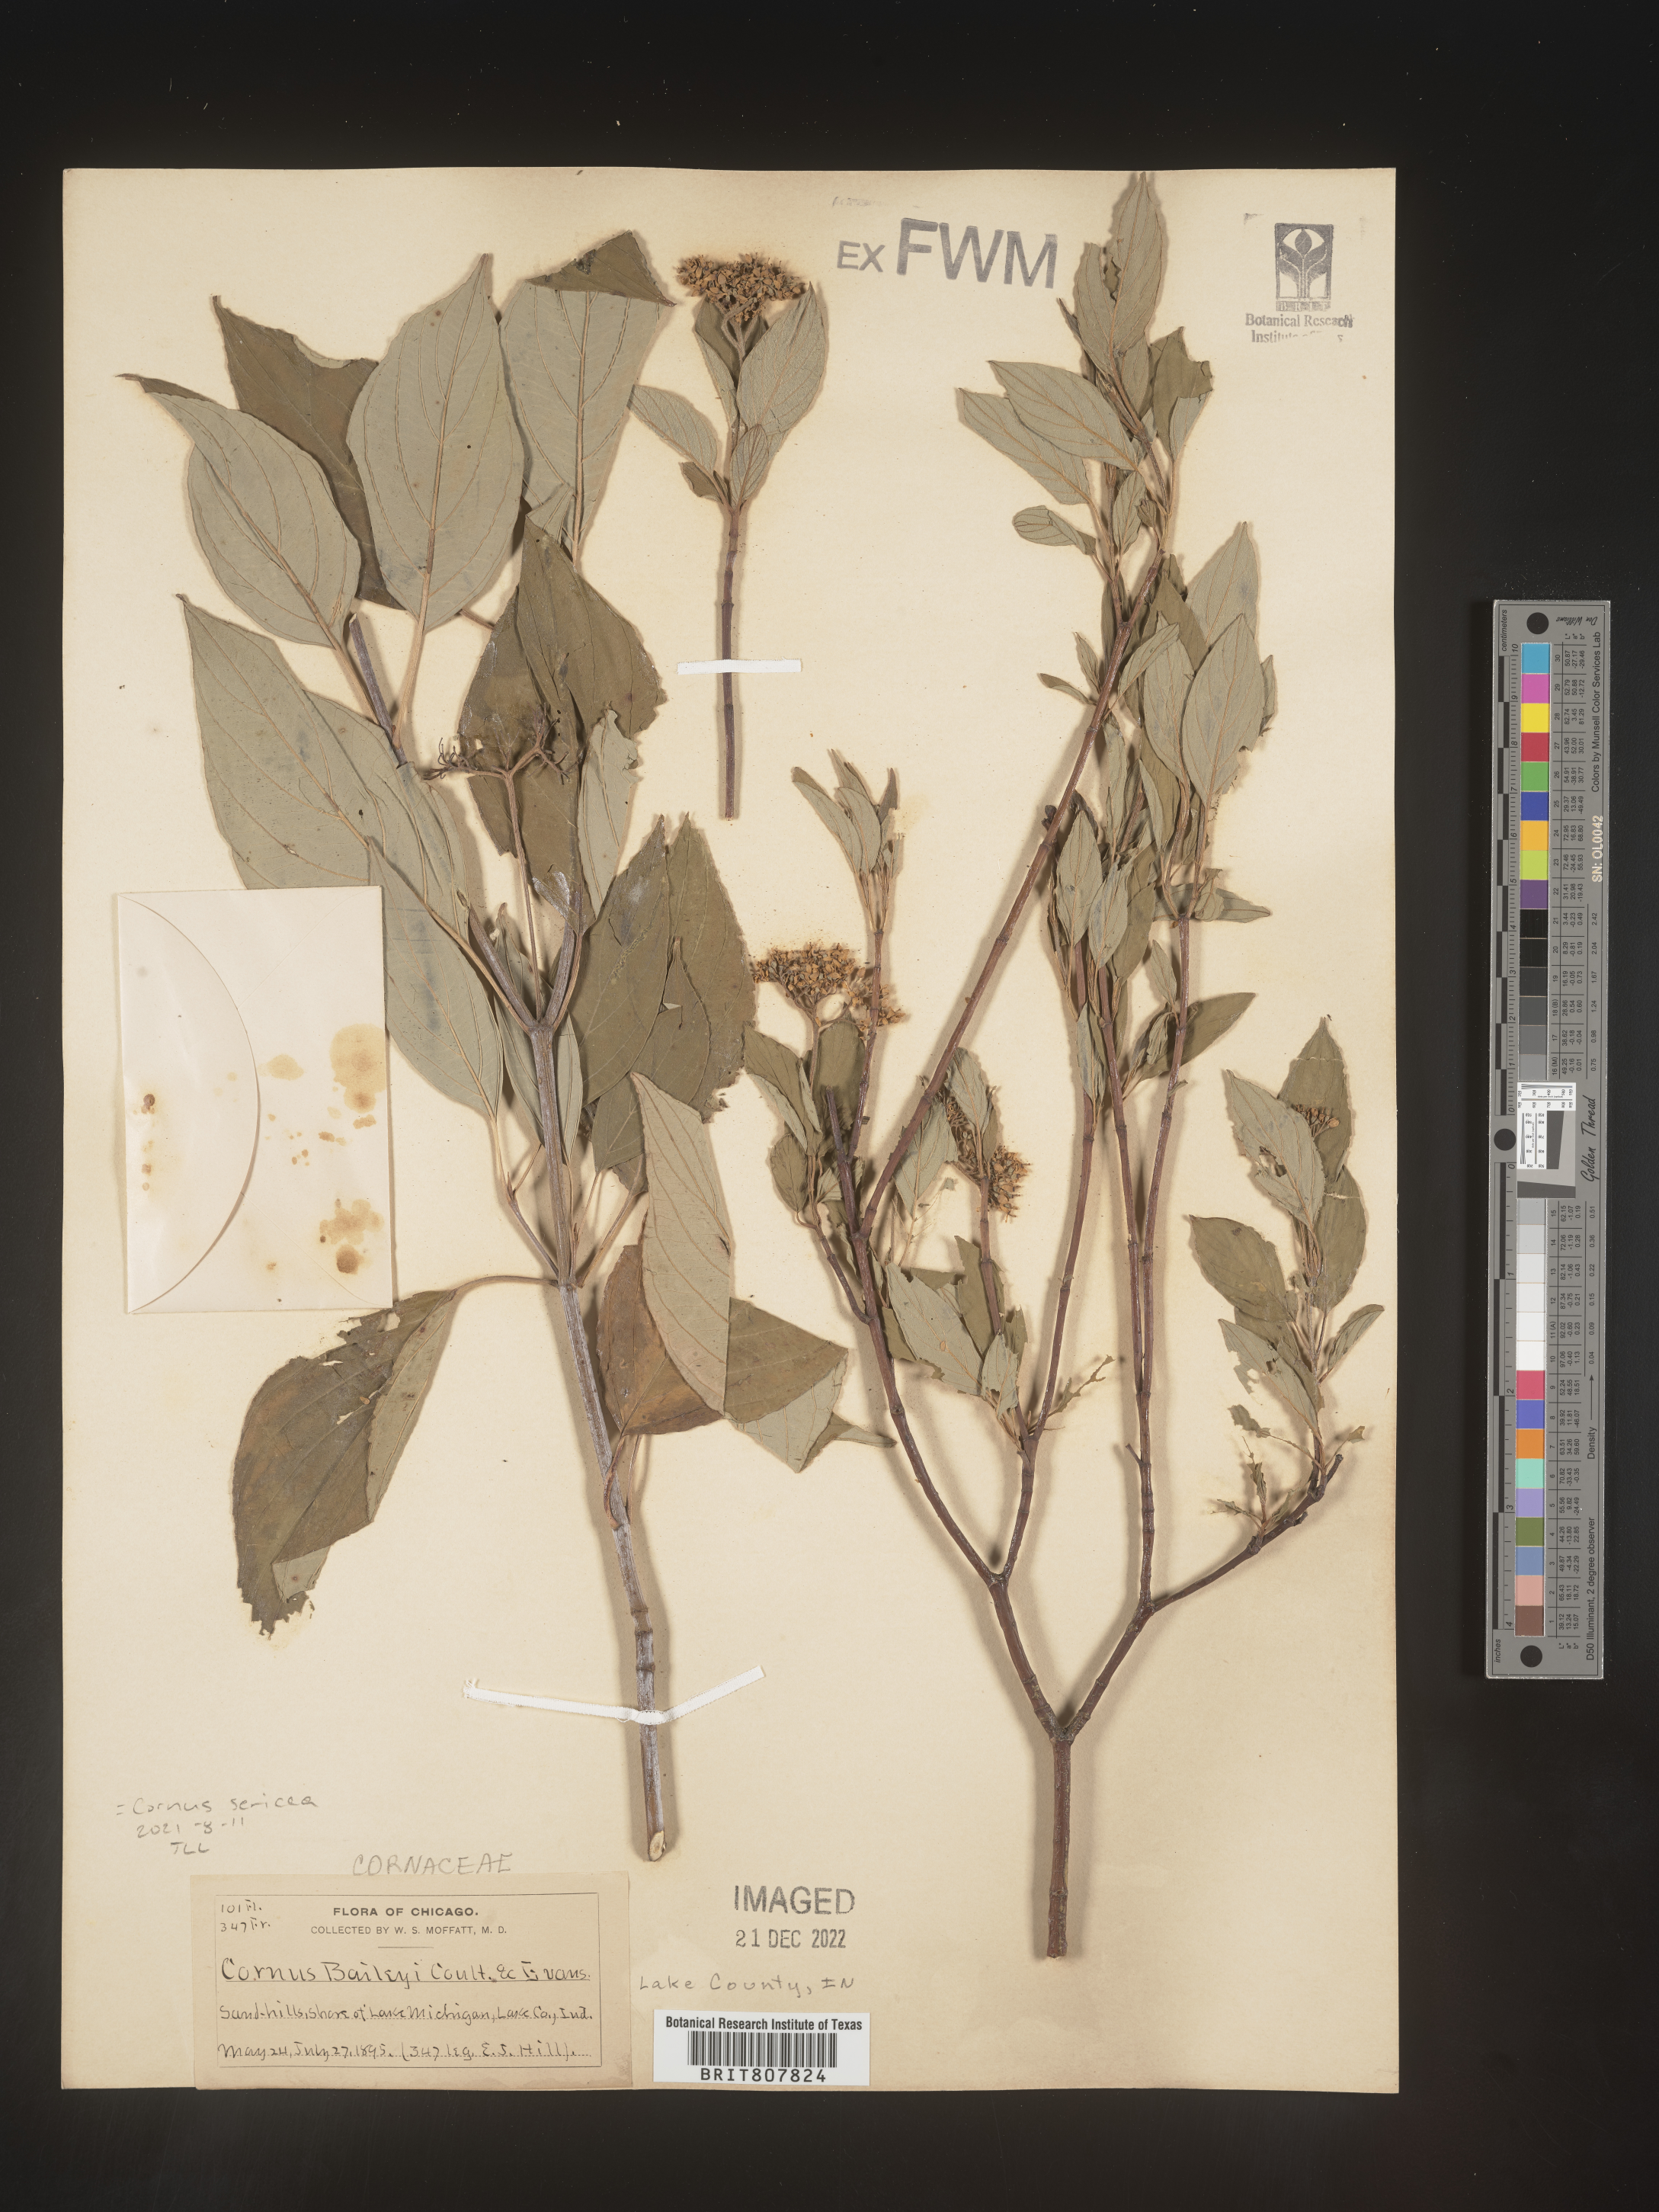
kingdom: Plantae
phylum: Tracheophyta
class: Magnoliopsida
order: Cornales
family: Cornaceae
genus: Cornus
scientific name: Cornus
